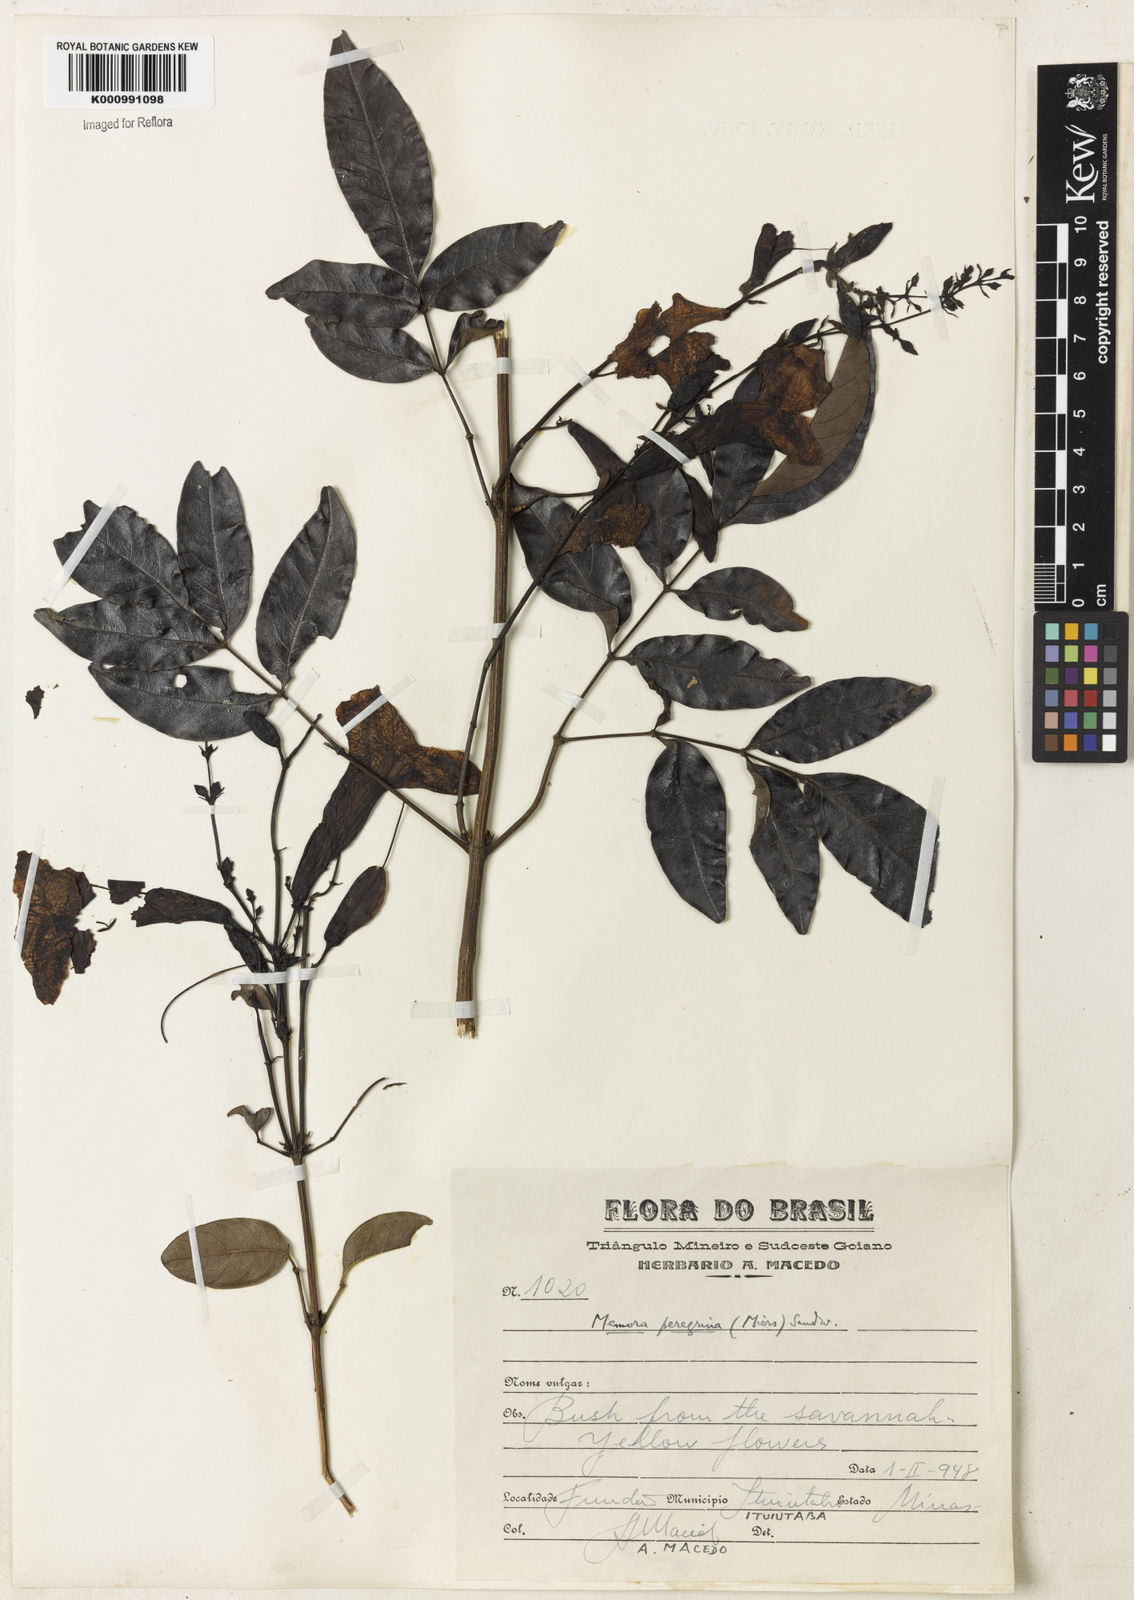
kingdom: Plantae
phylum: Tracheophyta
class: Magnoliopsida
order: Lamiales
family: Bignoniaceae
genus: Adenocalymma
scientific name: Adenocalymma peregrinum
